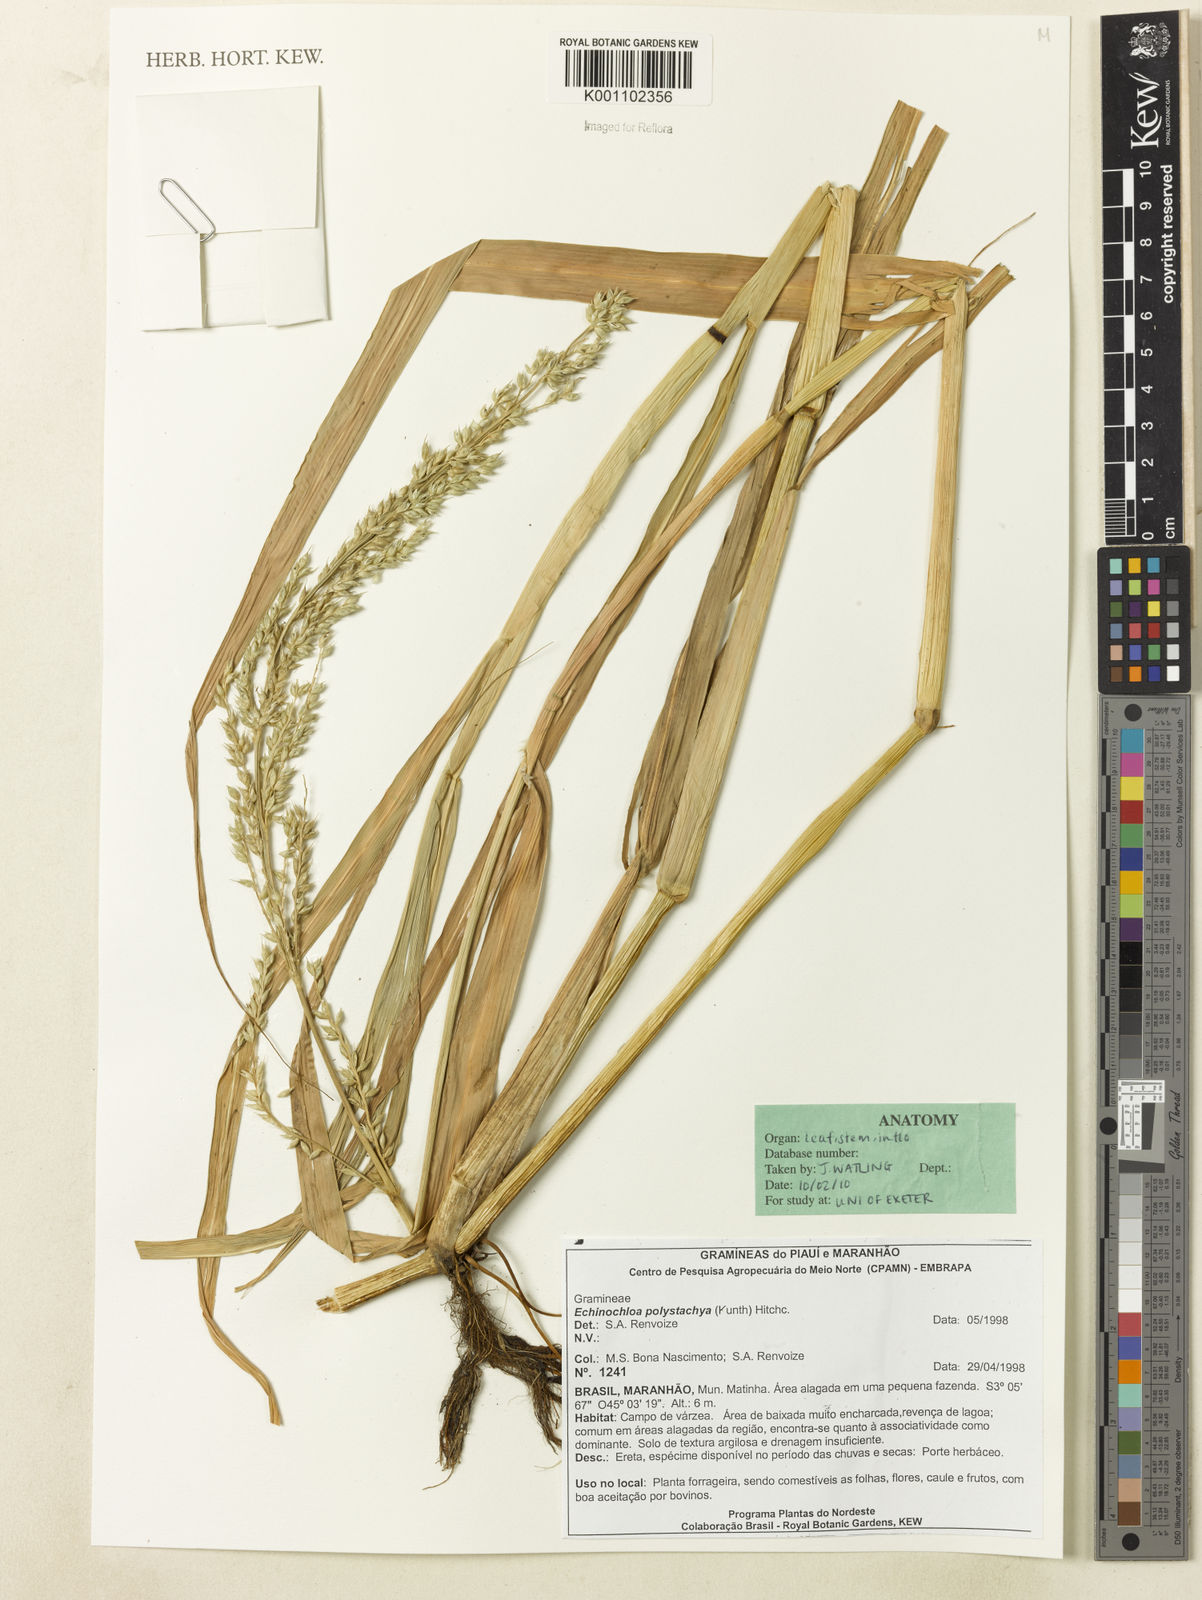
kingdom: Plantae
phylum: Tracheophyta
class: Liliopsida
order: Poales
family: Poaceae
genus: Echinochloa
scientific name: Echinochloa polystachya
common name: Creeping river grass
